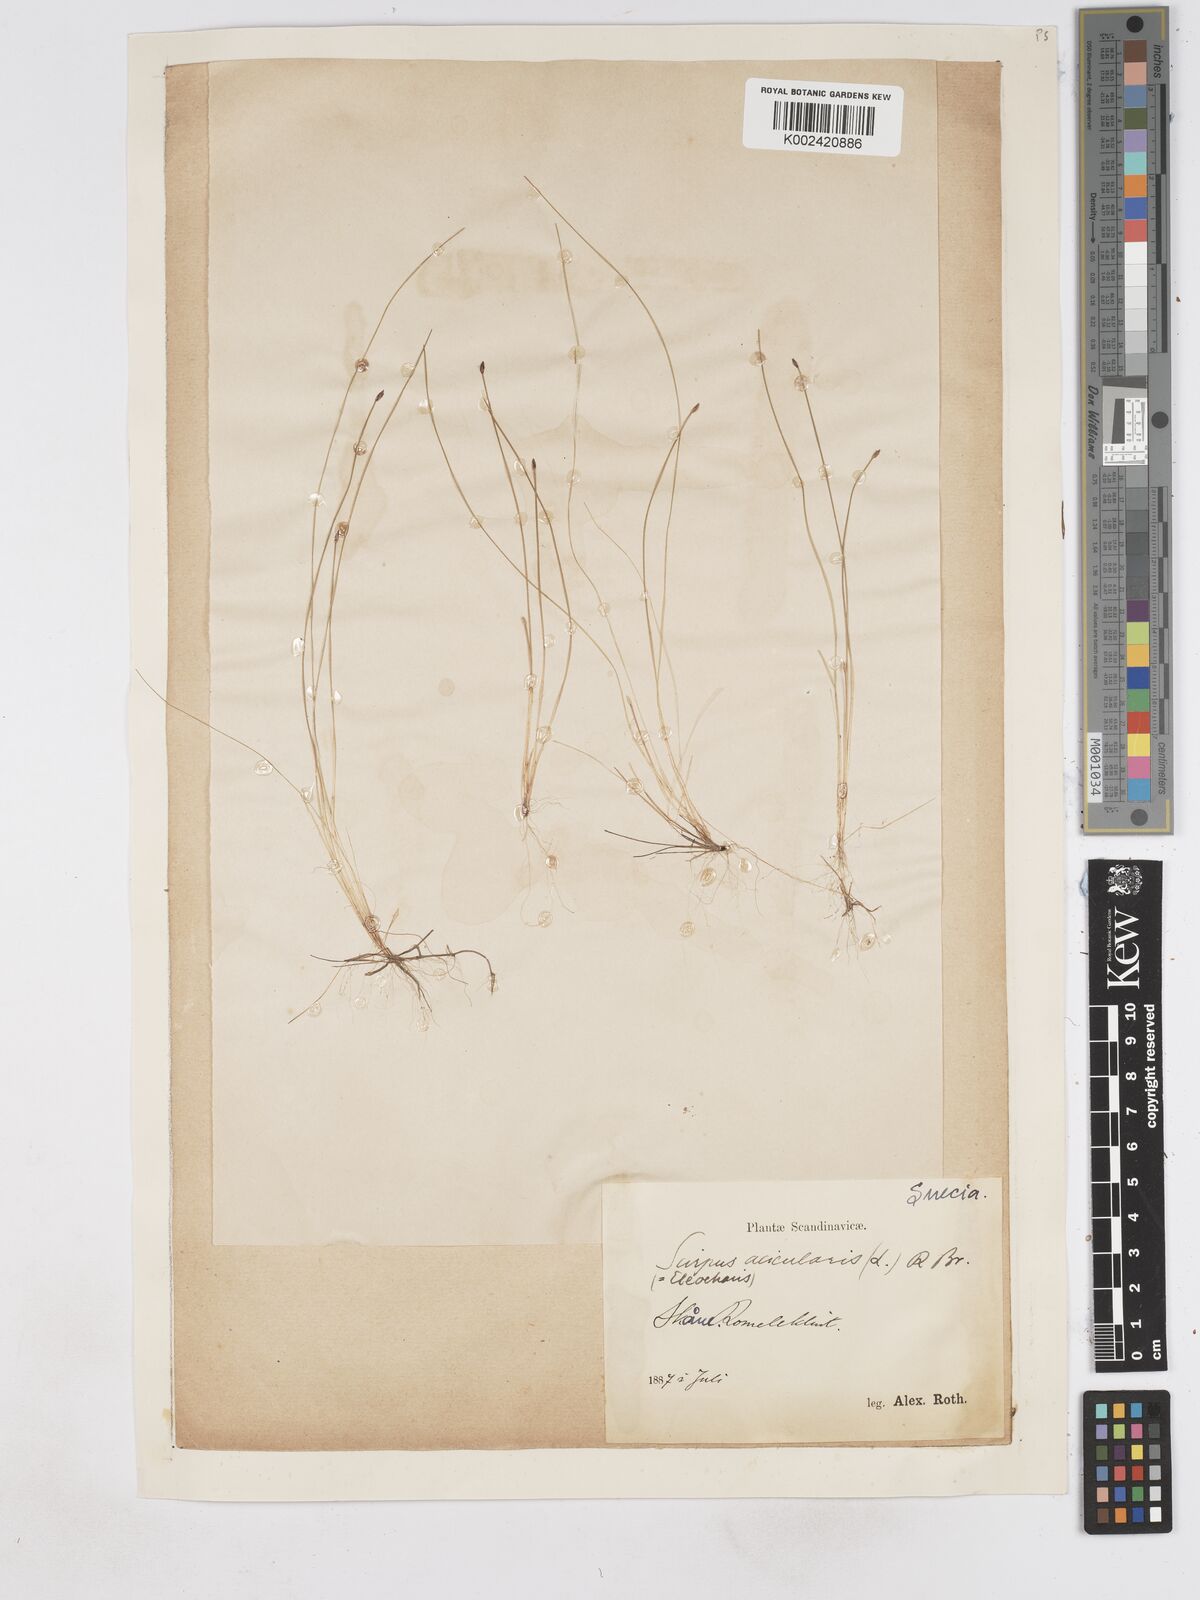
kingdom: Plantae
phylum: Tracheophyta
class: Liliopsida
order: Poales
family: Cyperaceae
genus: Eleocharis
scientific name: Eleocharis acicularis
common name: Needle spike-rush
